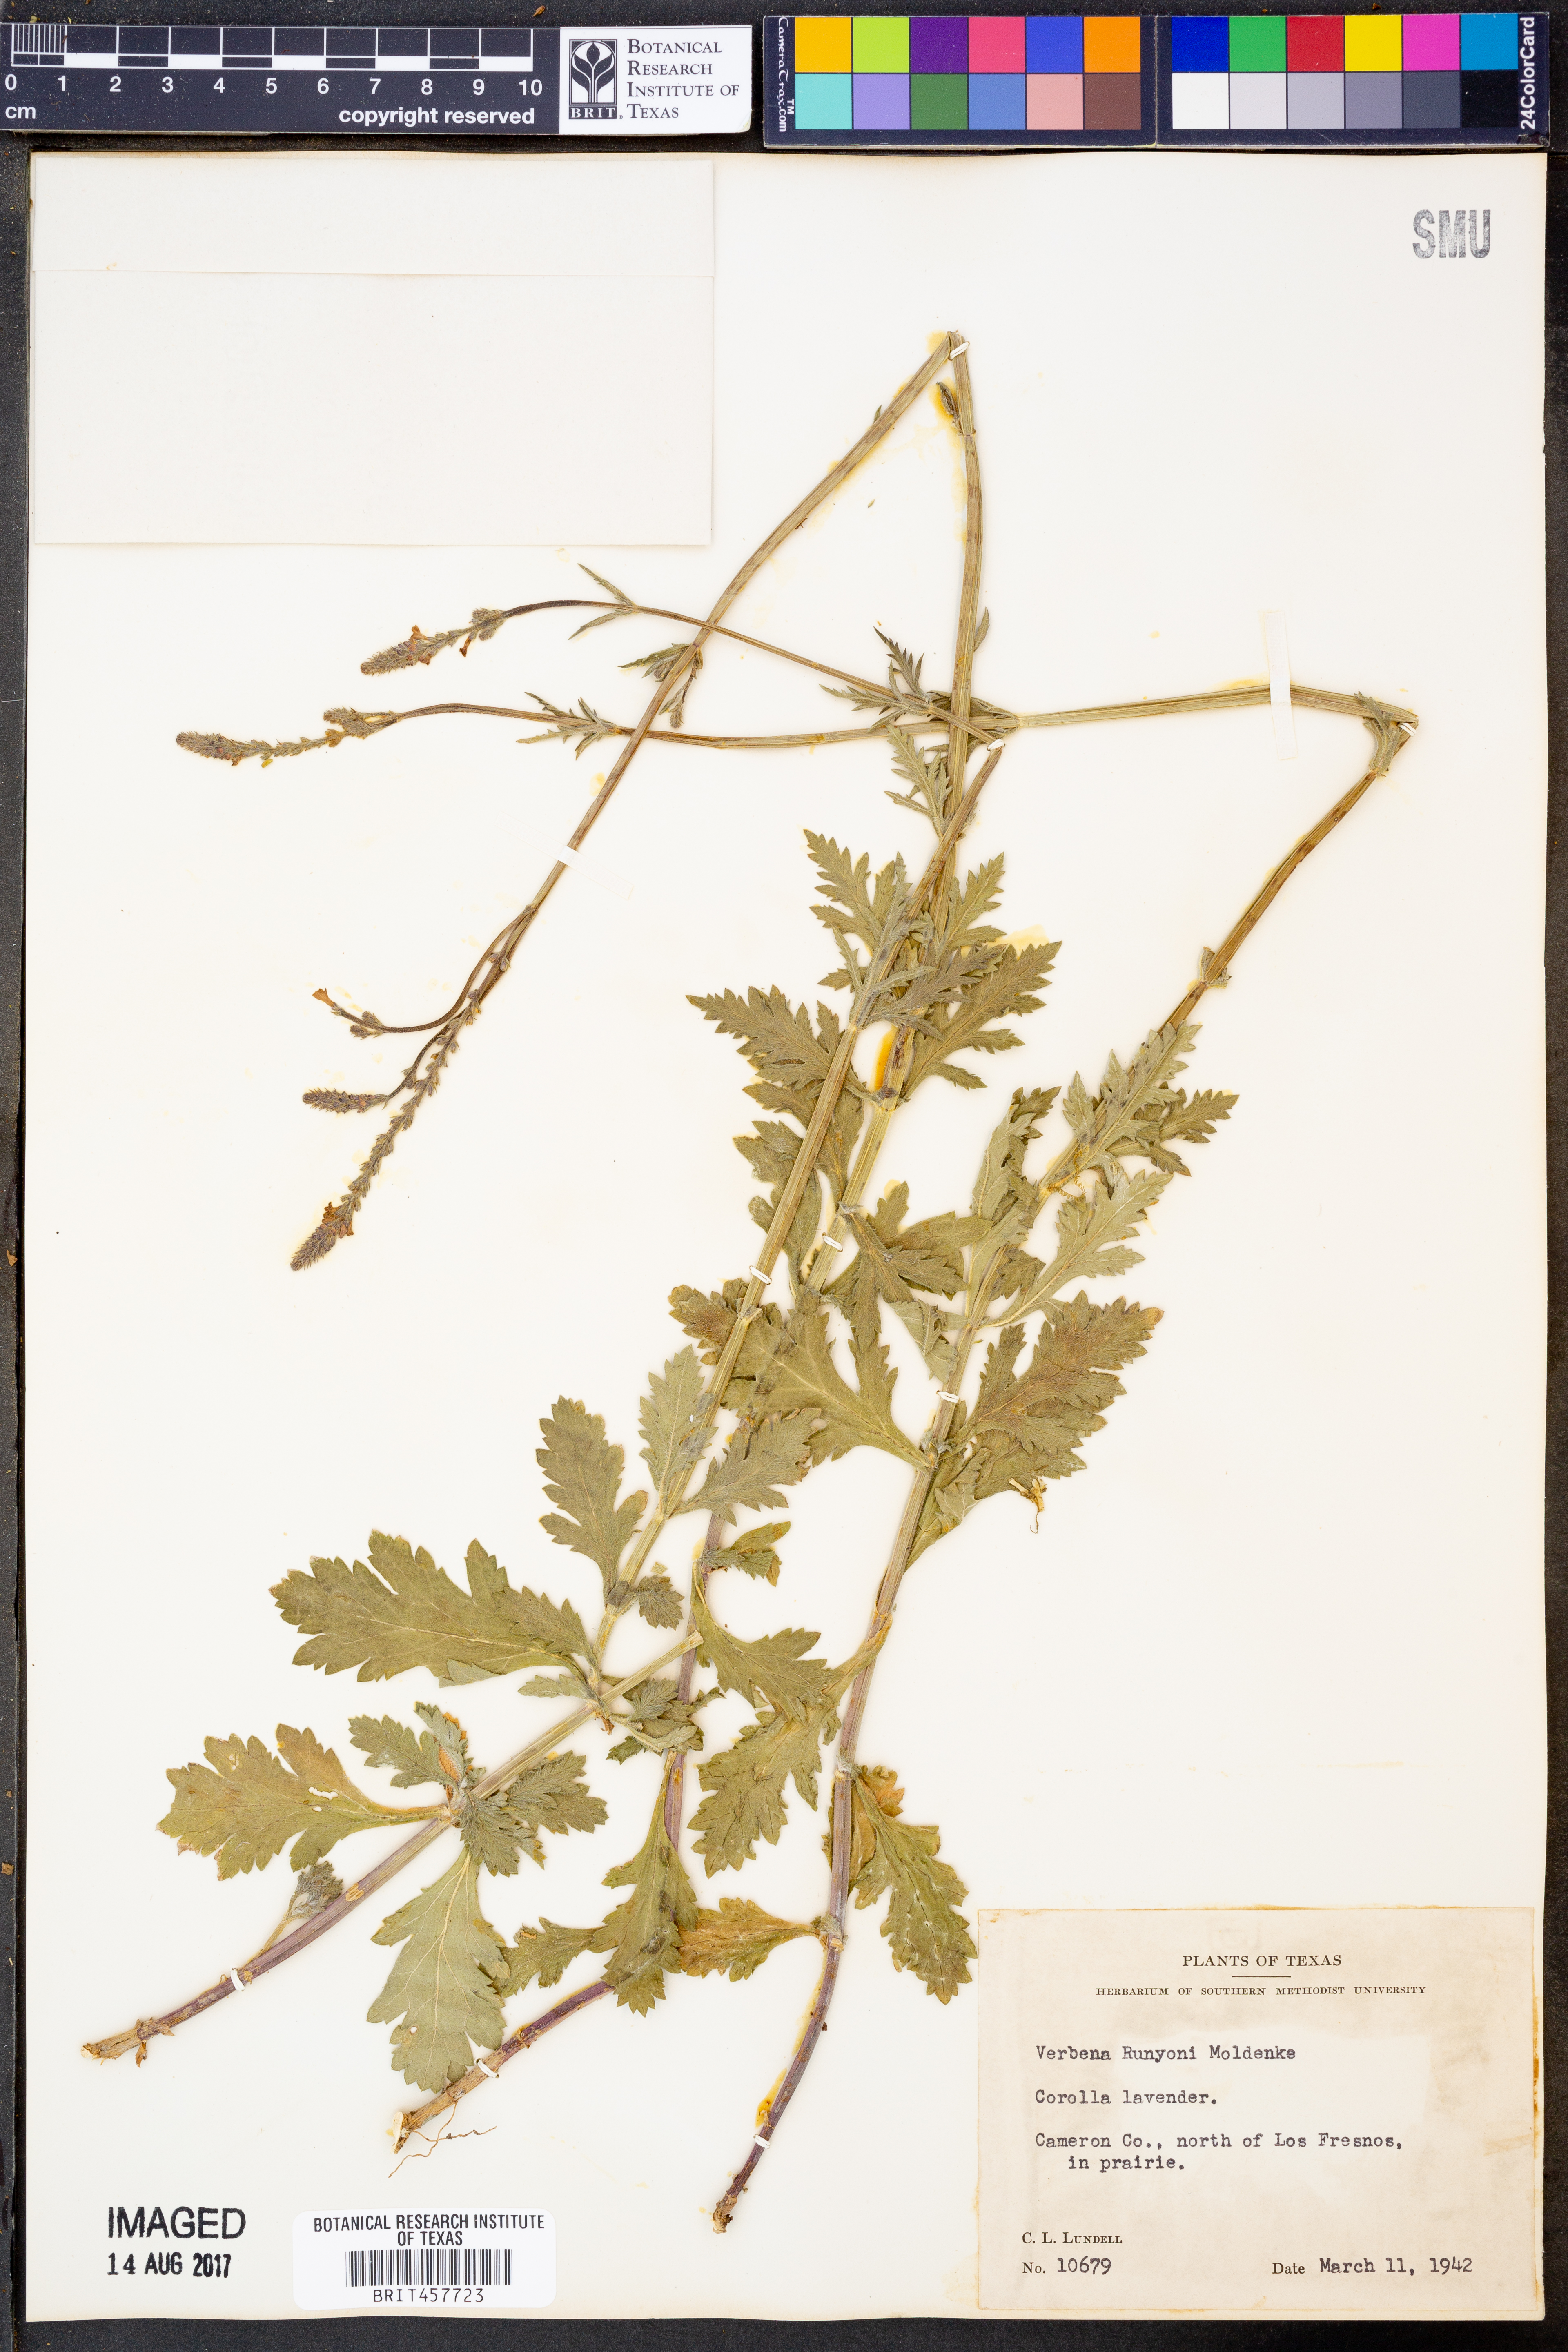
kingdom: Plantae
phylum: Tracheophyta
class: Magnoliopsida
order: Lamiales
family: Verbenaceae
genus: Verbena
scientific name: Verbena neomexicana
